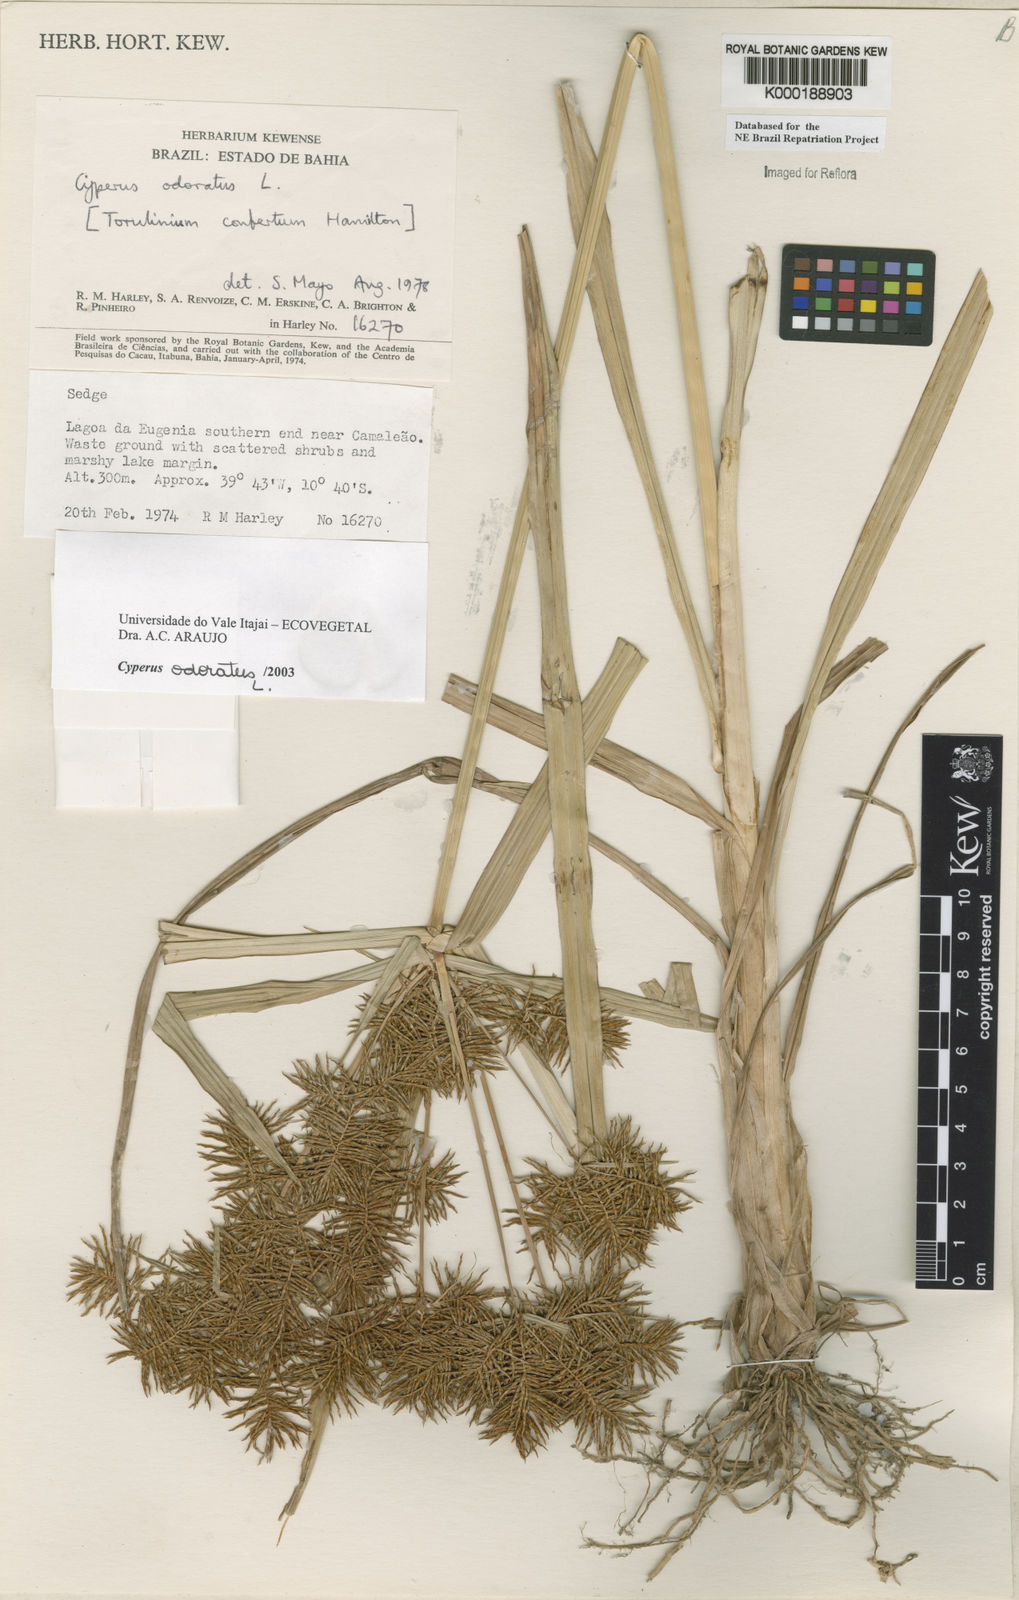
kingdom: Plantae
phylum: Tracheophyta
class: Liliopsida
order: Poales
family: Cyperaceae
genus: Cyperus
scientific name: Cyperus odoratus
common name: Fragrant flatsedge
